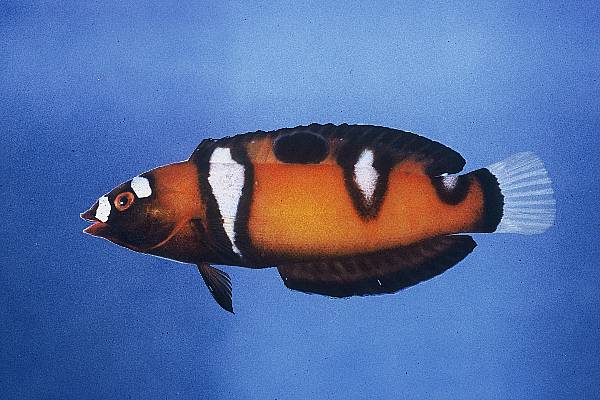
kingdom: Animalia
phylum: Chordata
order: Perciformes
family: Labridae
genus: Coris
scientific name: Coris formosa
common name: Queen coris
